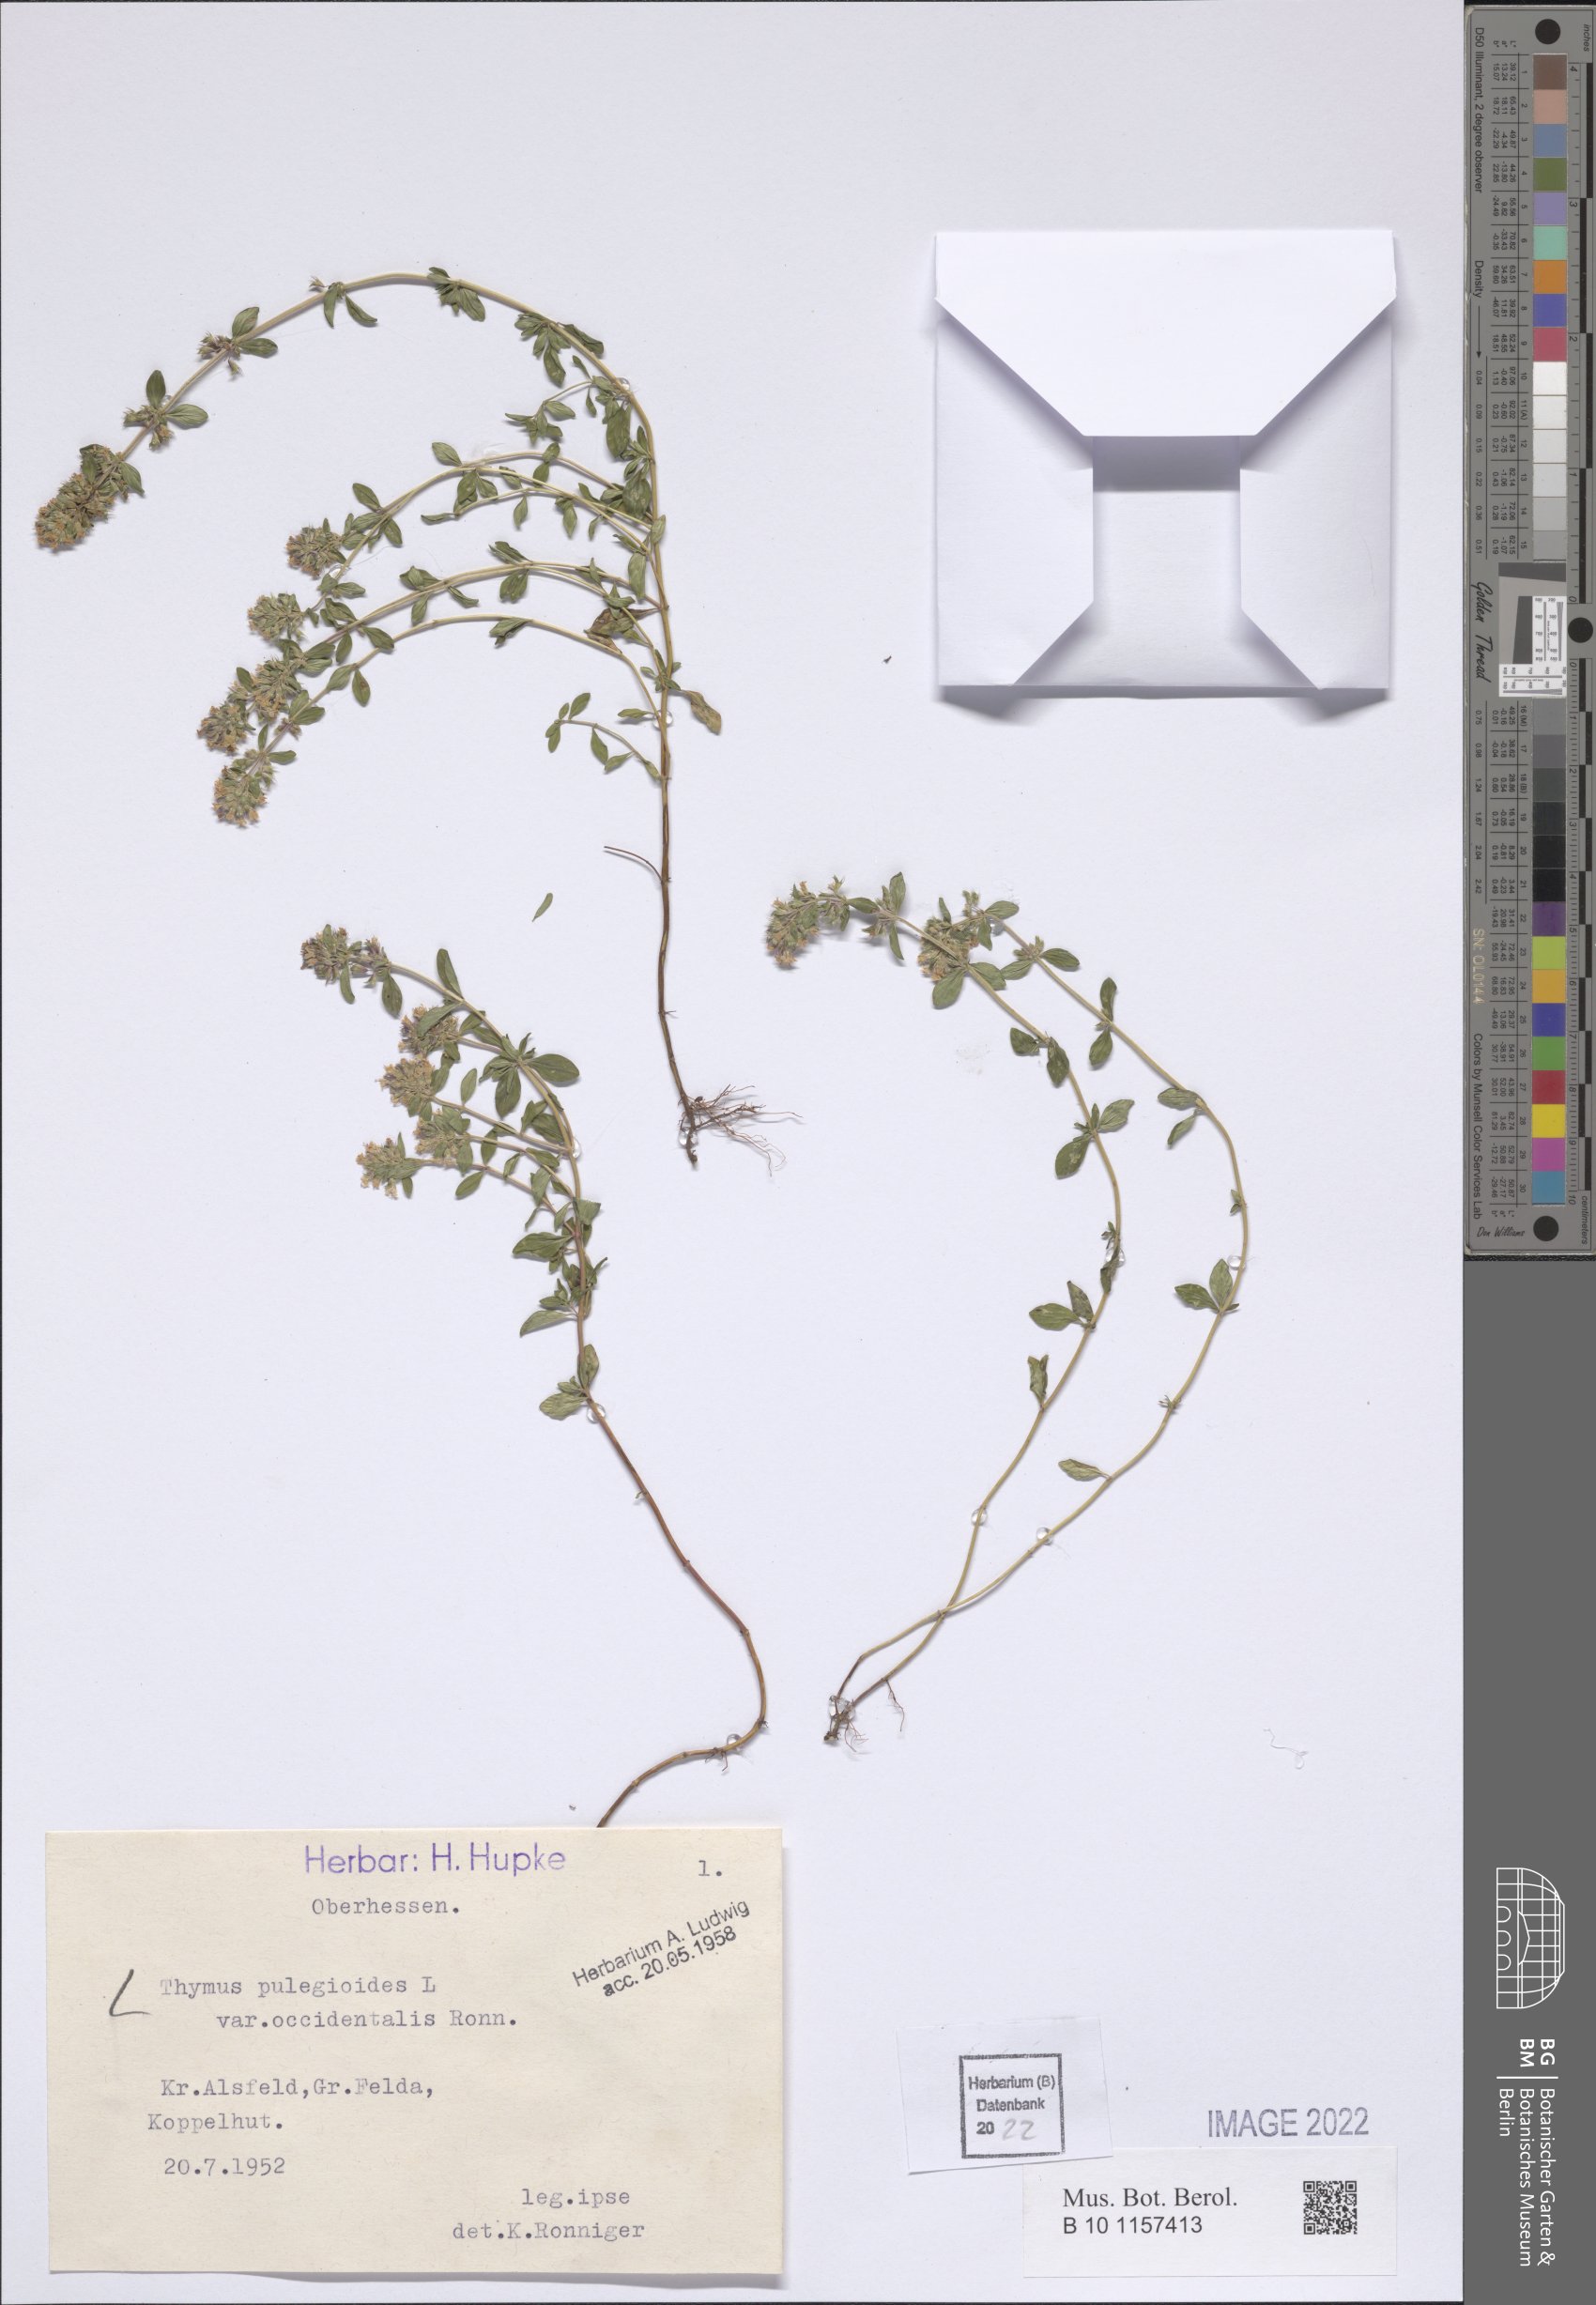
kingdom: Plantae
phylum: Tracheophyta
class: Magnoliopsida
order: Lamiales
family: Lamiaceae
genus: Thymus
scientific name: Thymus pulegioides
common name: Large thyme
